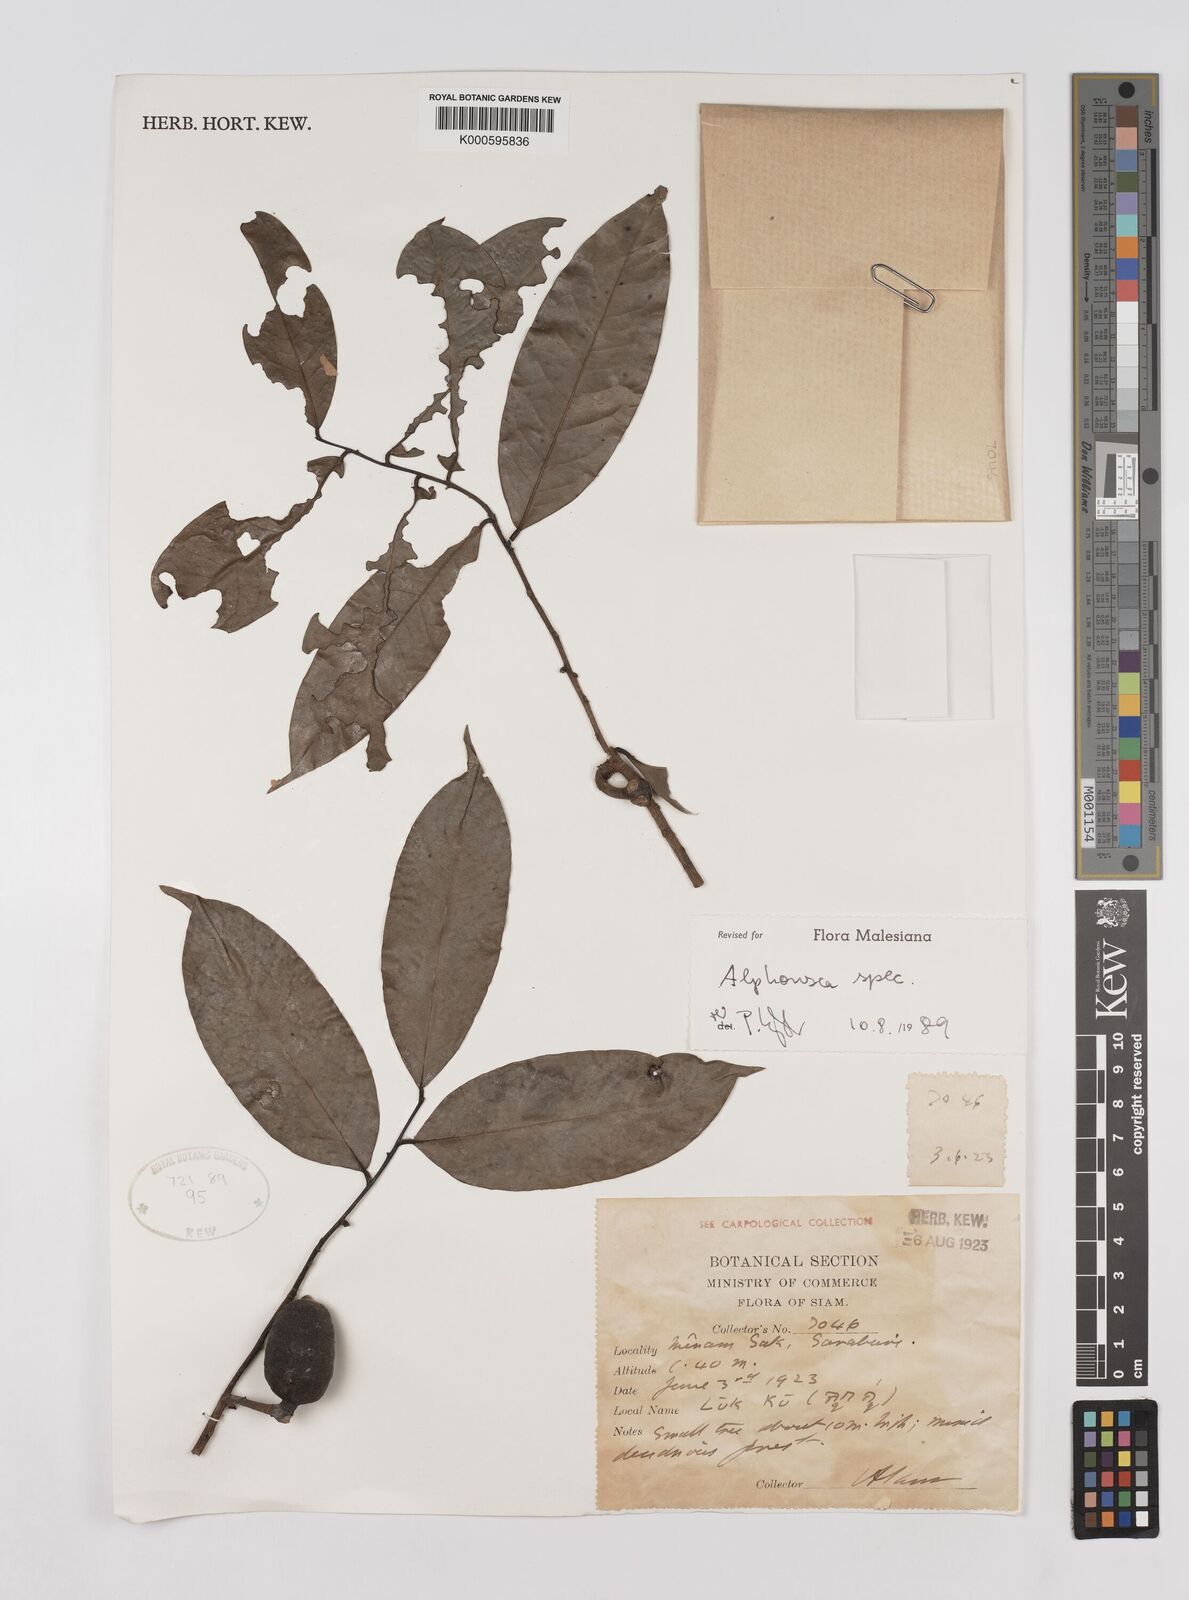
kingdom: Plantae
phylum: Tracheophyta
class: Magnoliopsida
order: Magnoliales
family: Annonaceae
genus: Alphonsea
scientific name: Alphonsea
